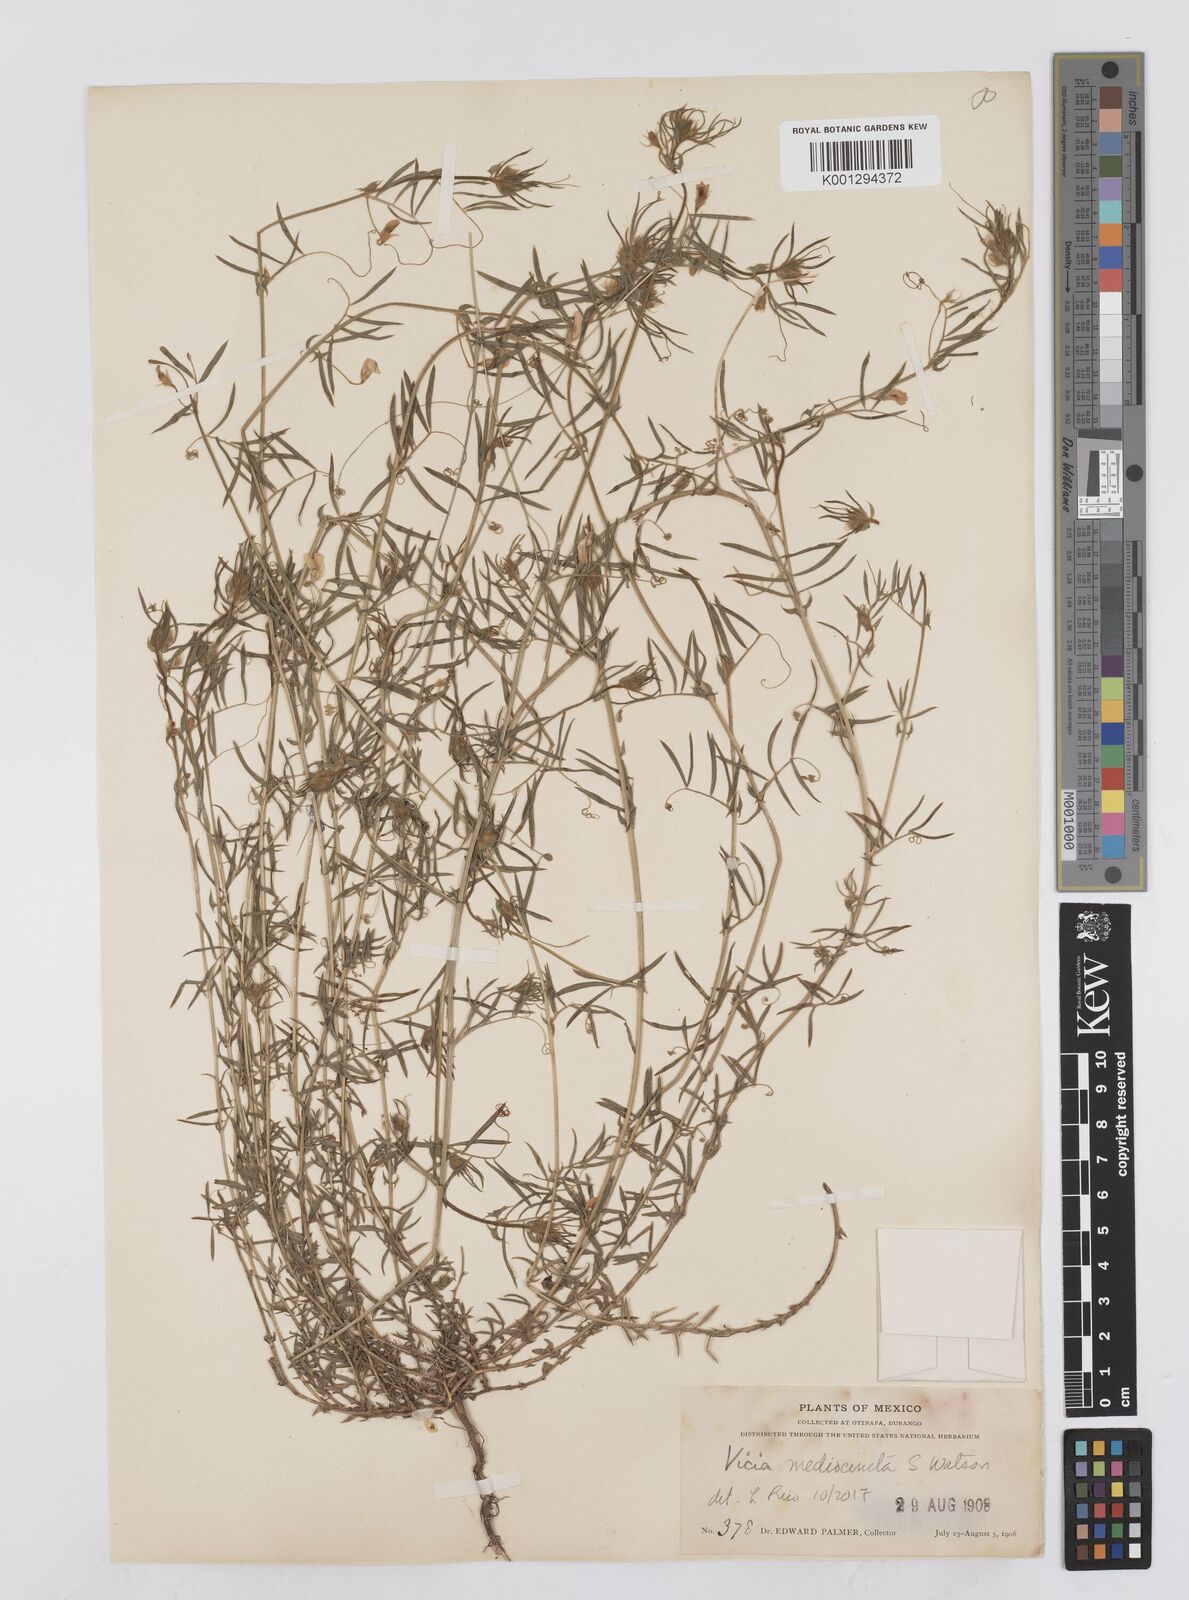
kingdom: Plantae
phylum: Tracheophyta
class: Magnoliopsida
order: Fabales
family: Fabaceae
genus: Vicia
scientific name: Vicia leucophaea
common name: Mogollon vetch
